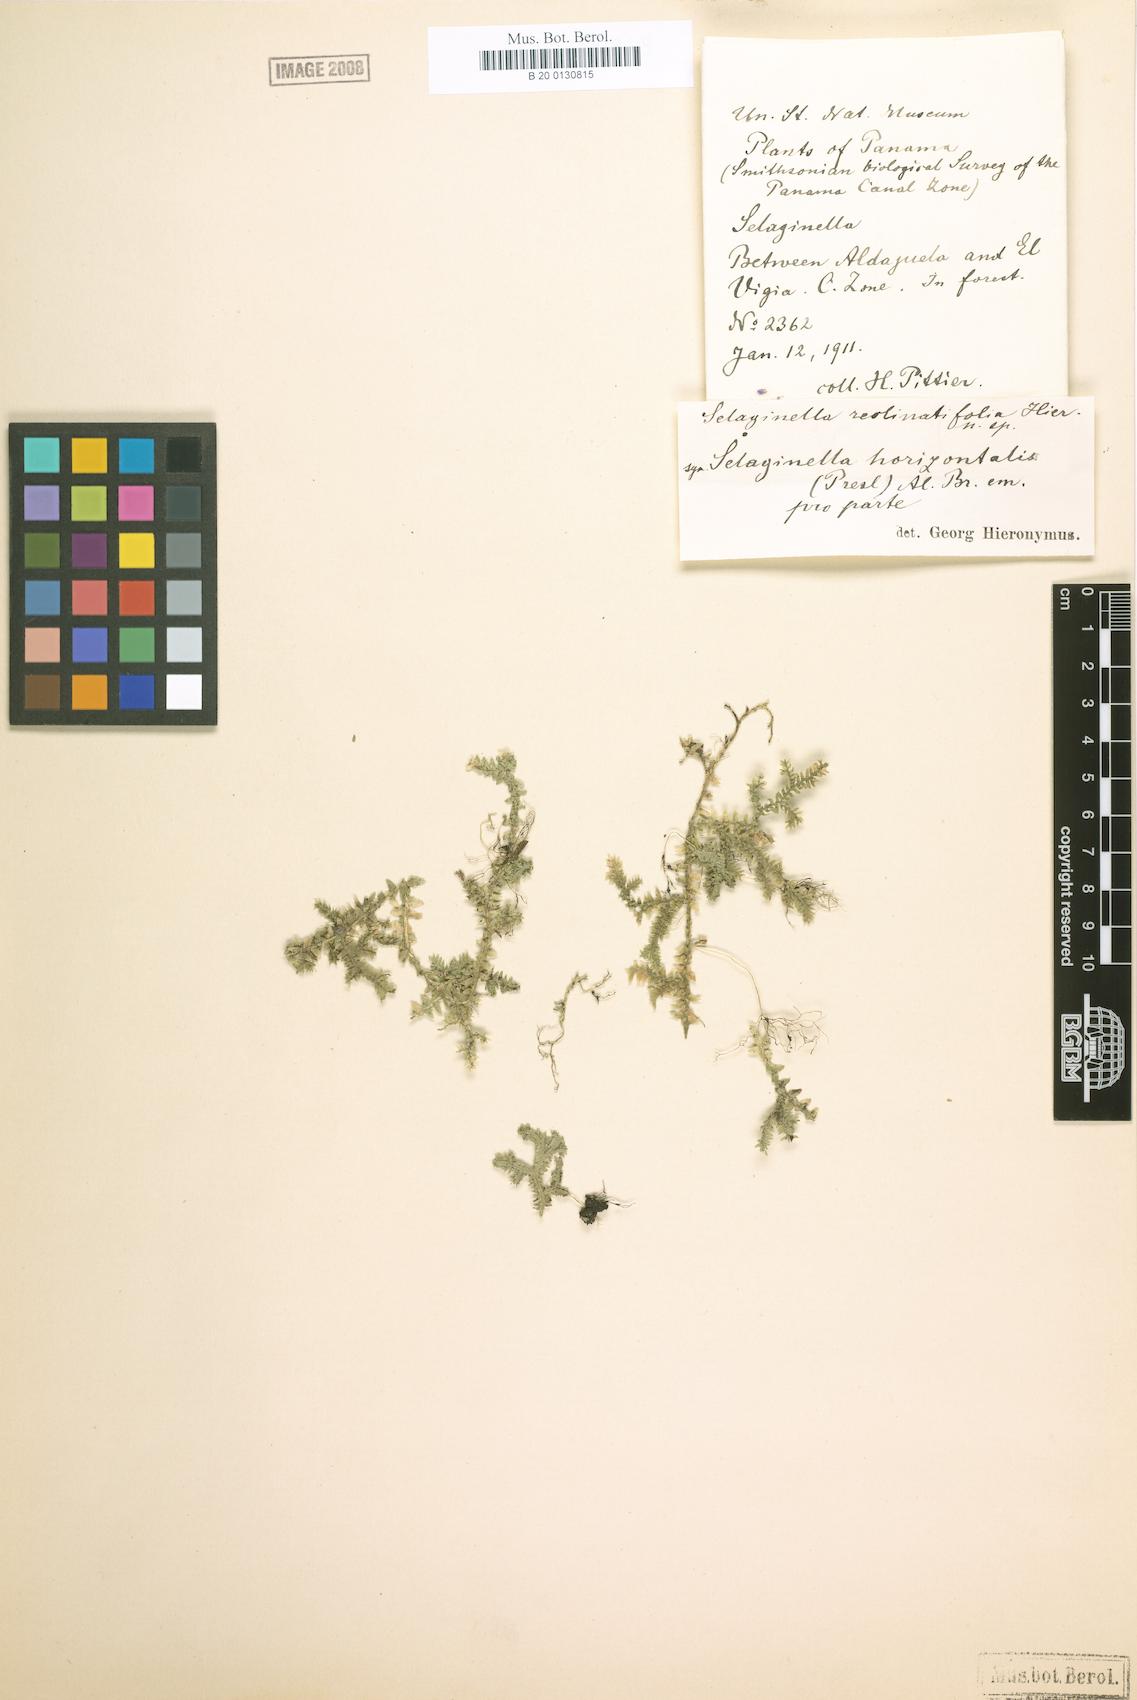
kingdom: Plantae
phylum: Tracheophyta
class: Lycopodiopsida
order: Selaginellales
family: Selaginellaceae
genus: Selaginella
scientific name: Selaginella horizontalis
